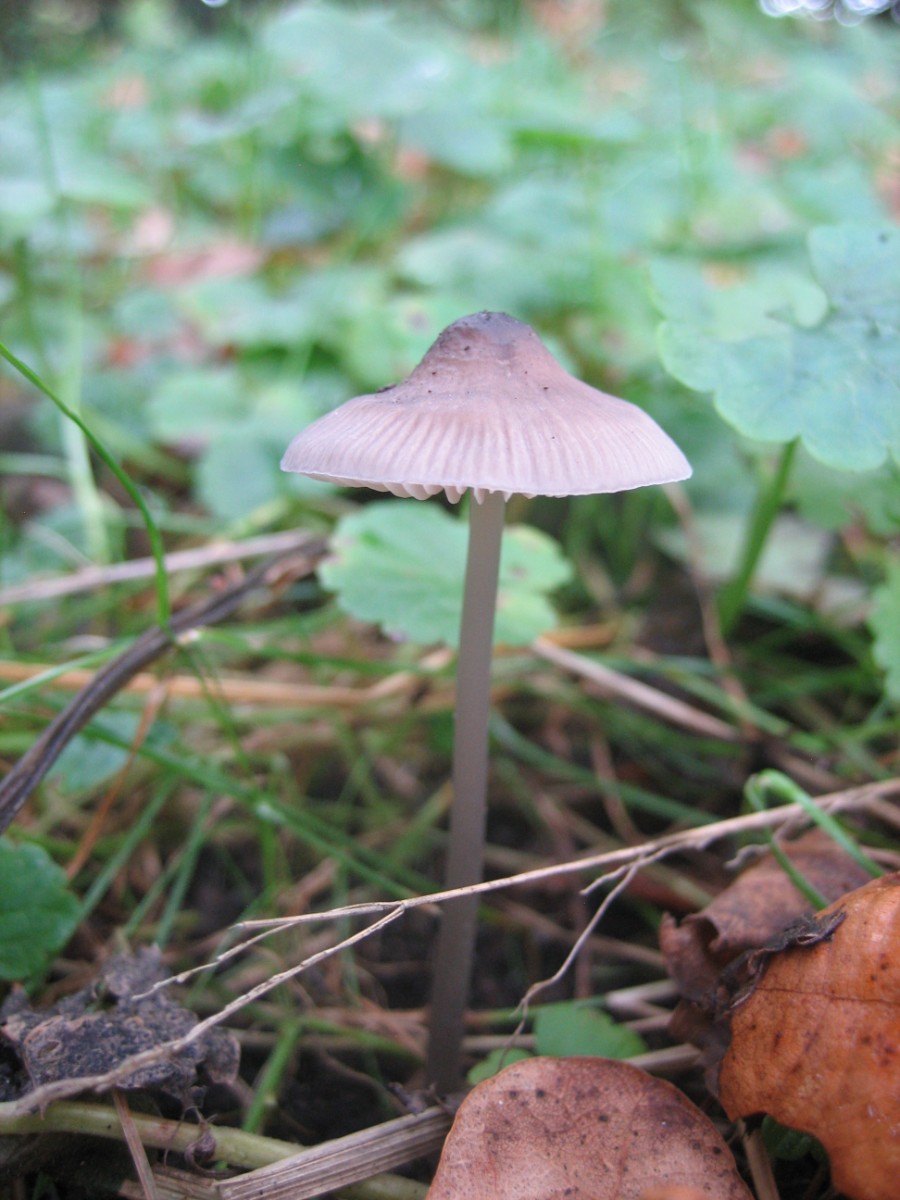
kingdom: Fungi
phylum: Basidiomycota
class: Agaricomycetes
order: Agaricales
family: Mycenaceae
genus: Mycena
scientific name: Mycena galericulata
